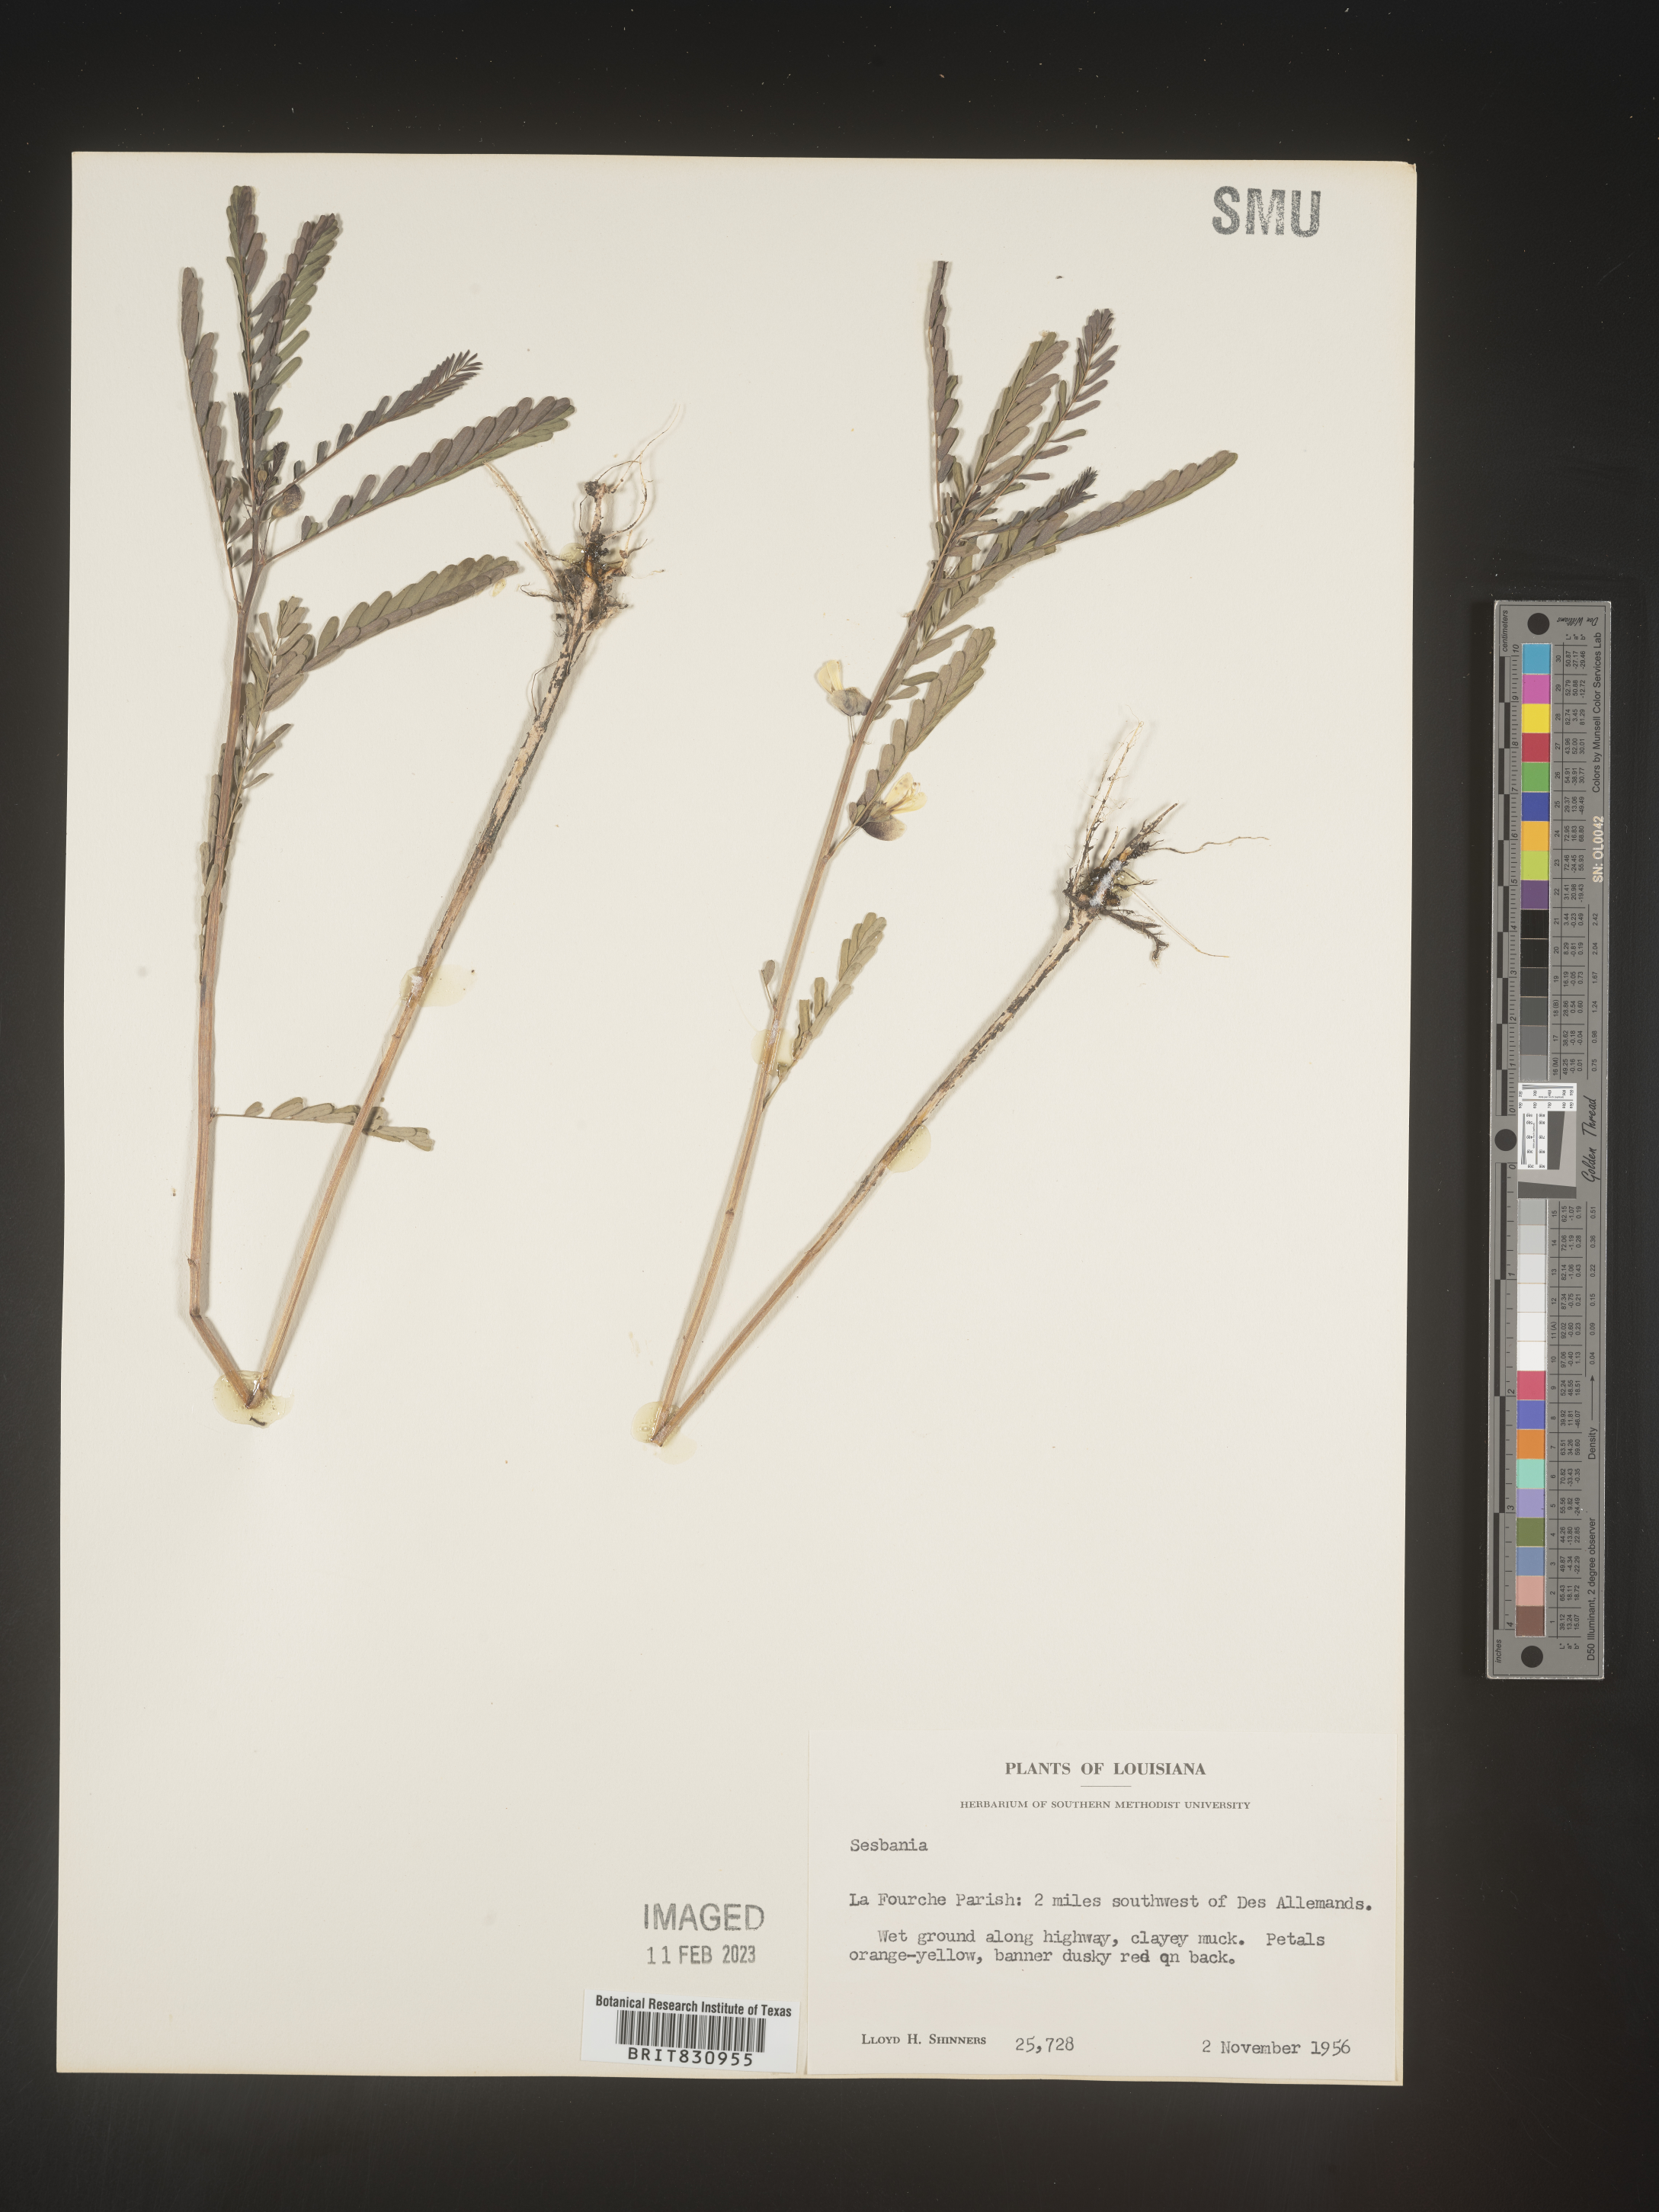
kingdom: Plantae
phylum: Tracheophyta
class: Magnoliopsida
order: Fabales
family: Fabaceae
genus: Sesbania
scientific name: Sesbania
